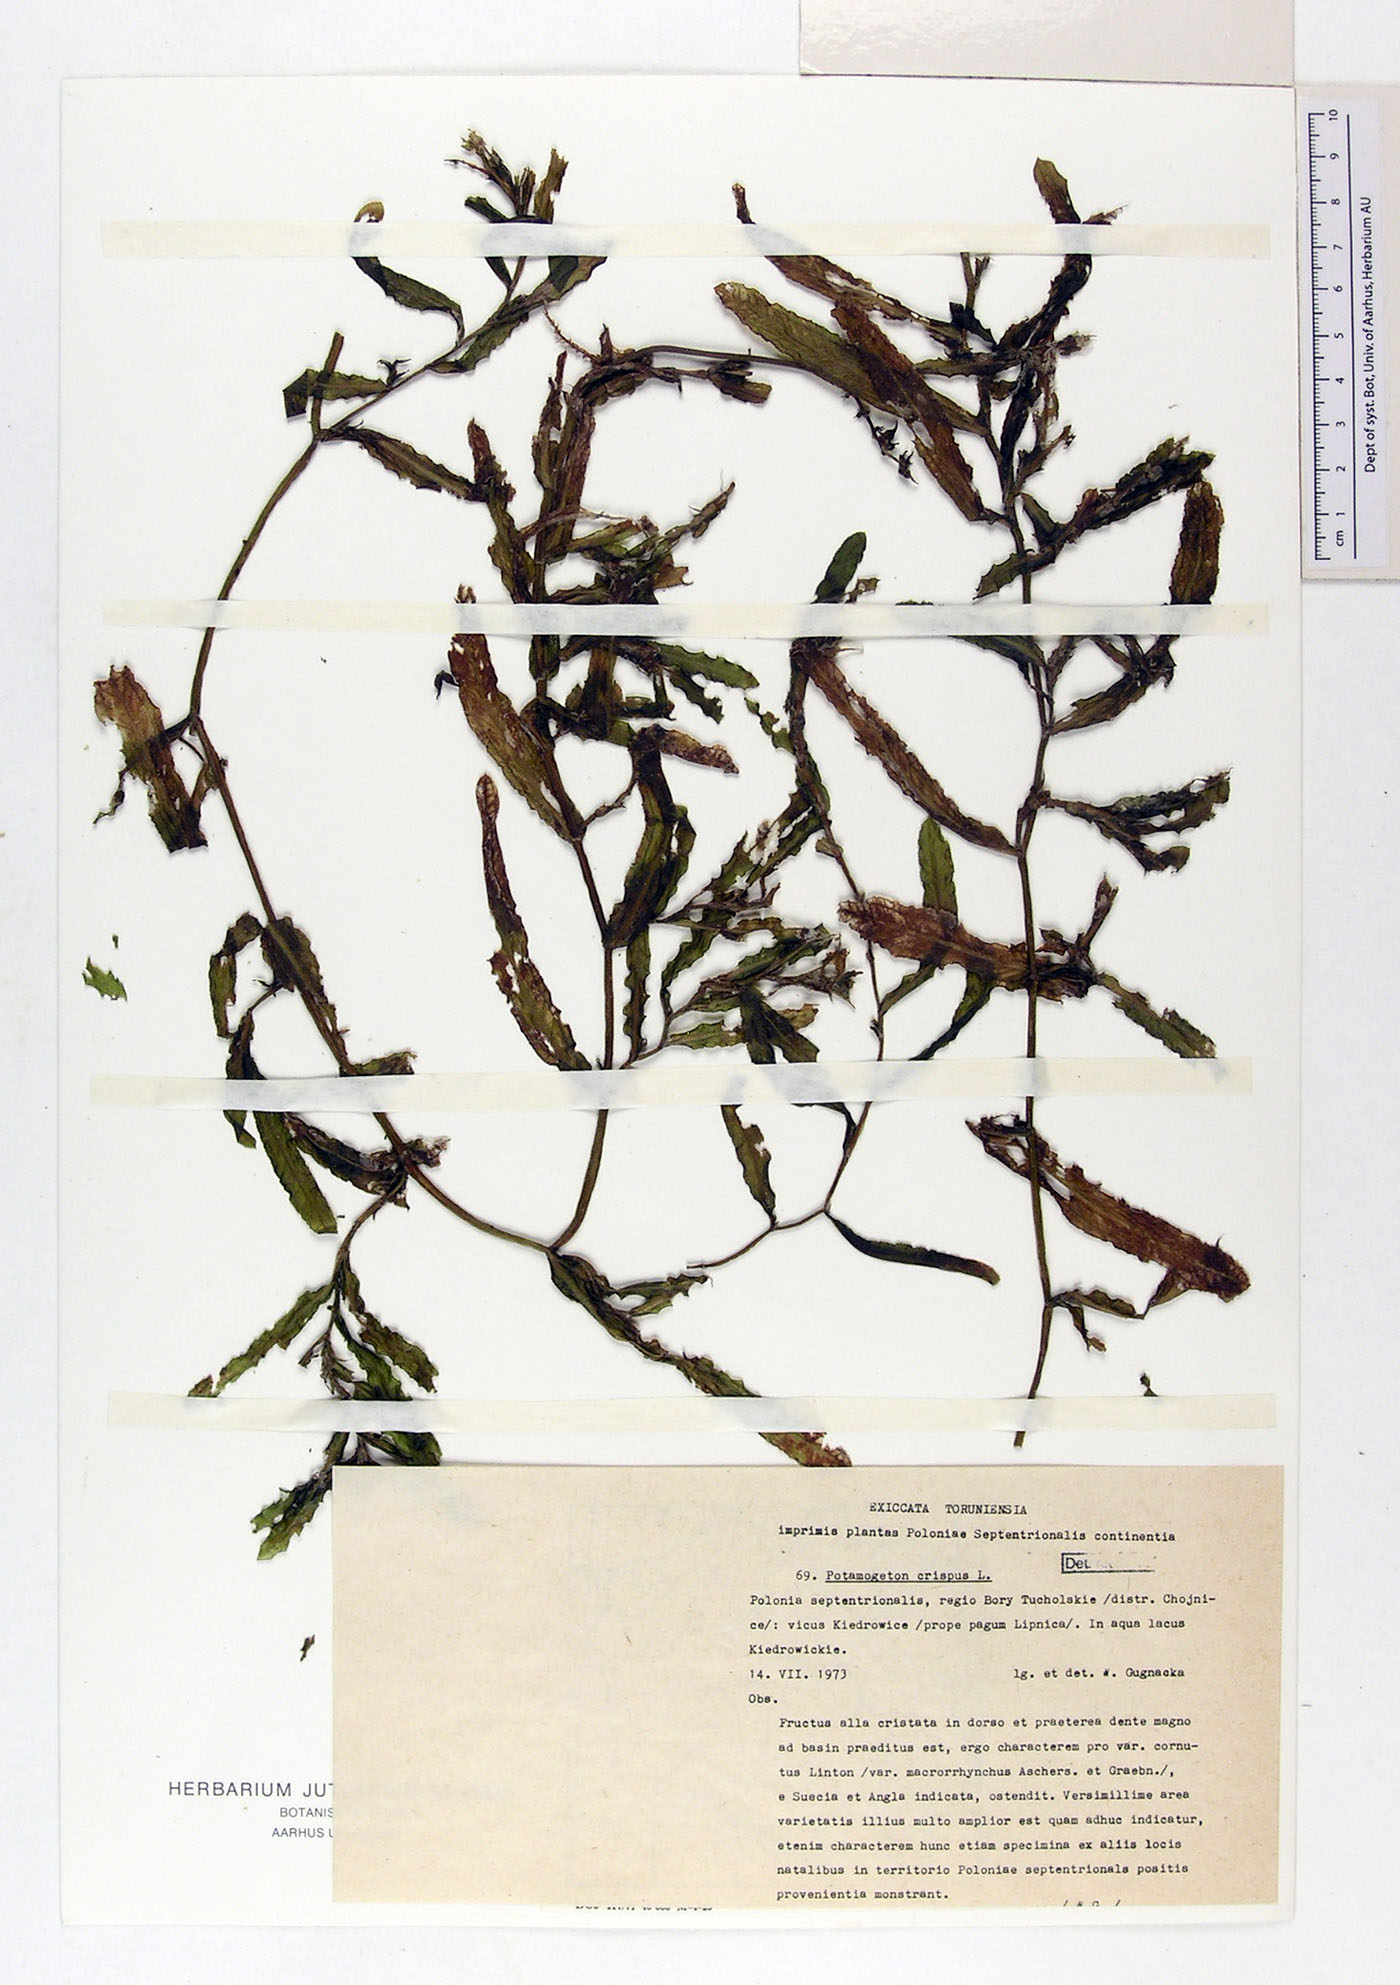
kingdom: Plantae
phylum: Tracheophyta
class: Liliopsida
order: Alismatales
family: Potamogetonaceae
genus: Potamogeton
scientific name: Potamogeton crispus
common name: Curled pondweed
